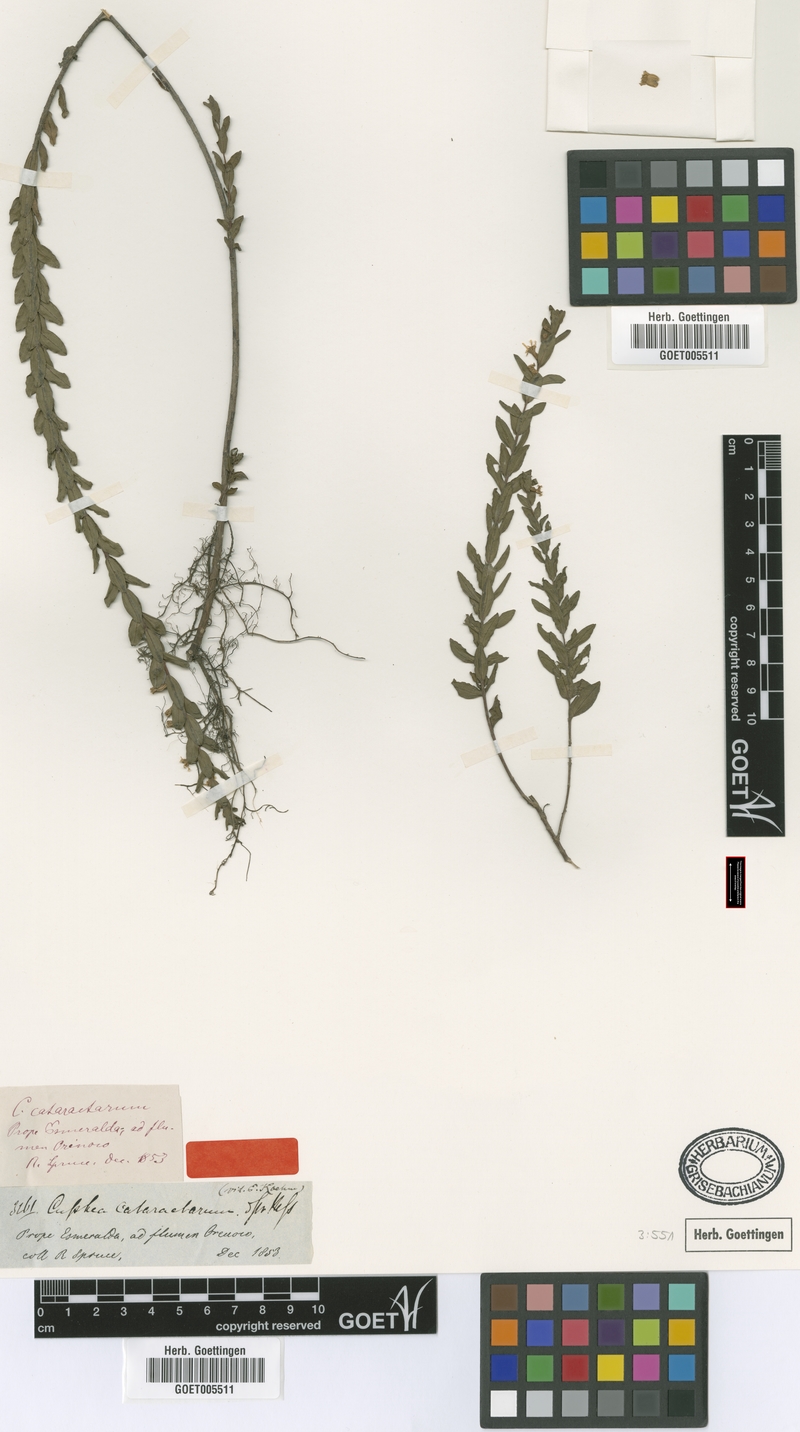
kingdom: Plantae
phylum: Tracheophyta
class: Magnoliopsida
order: Myrtales
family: Lythraceae
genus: Cuphea
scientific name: Cuphea cataractarum
